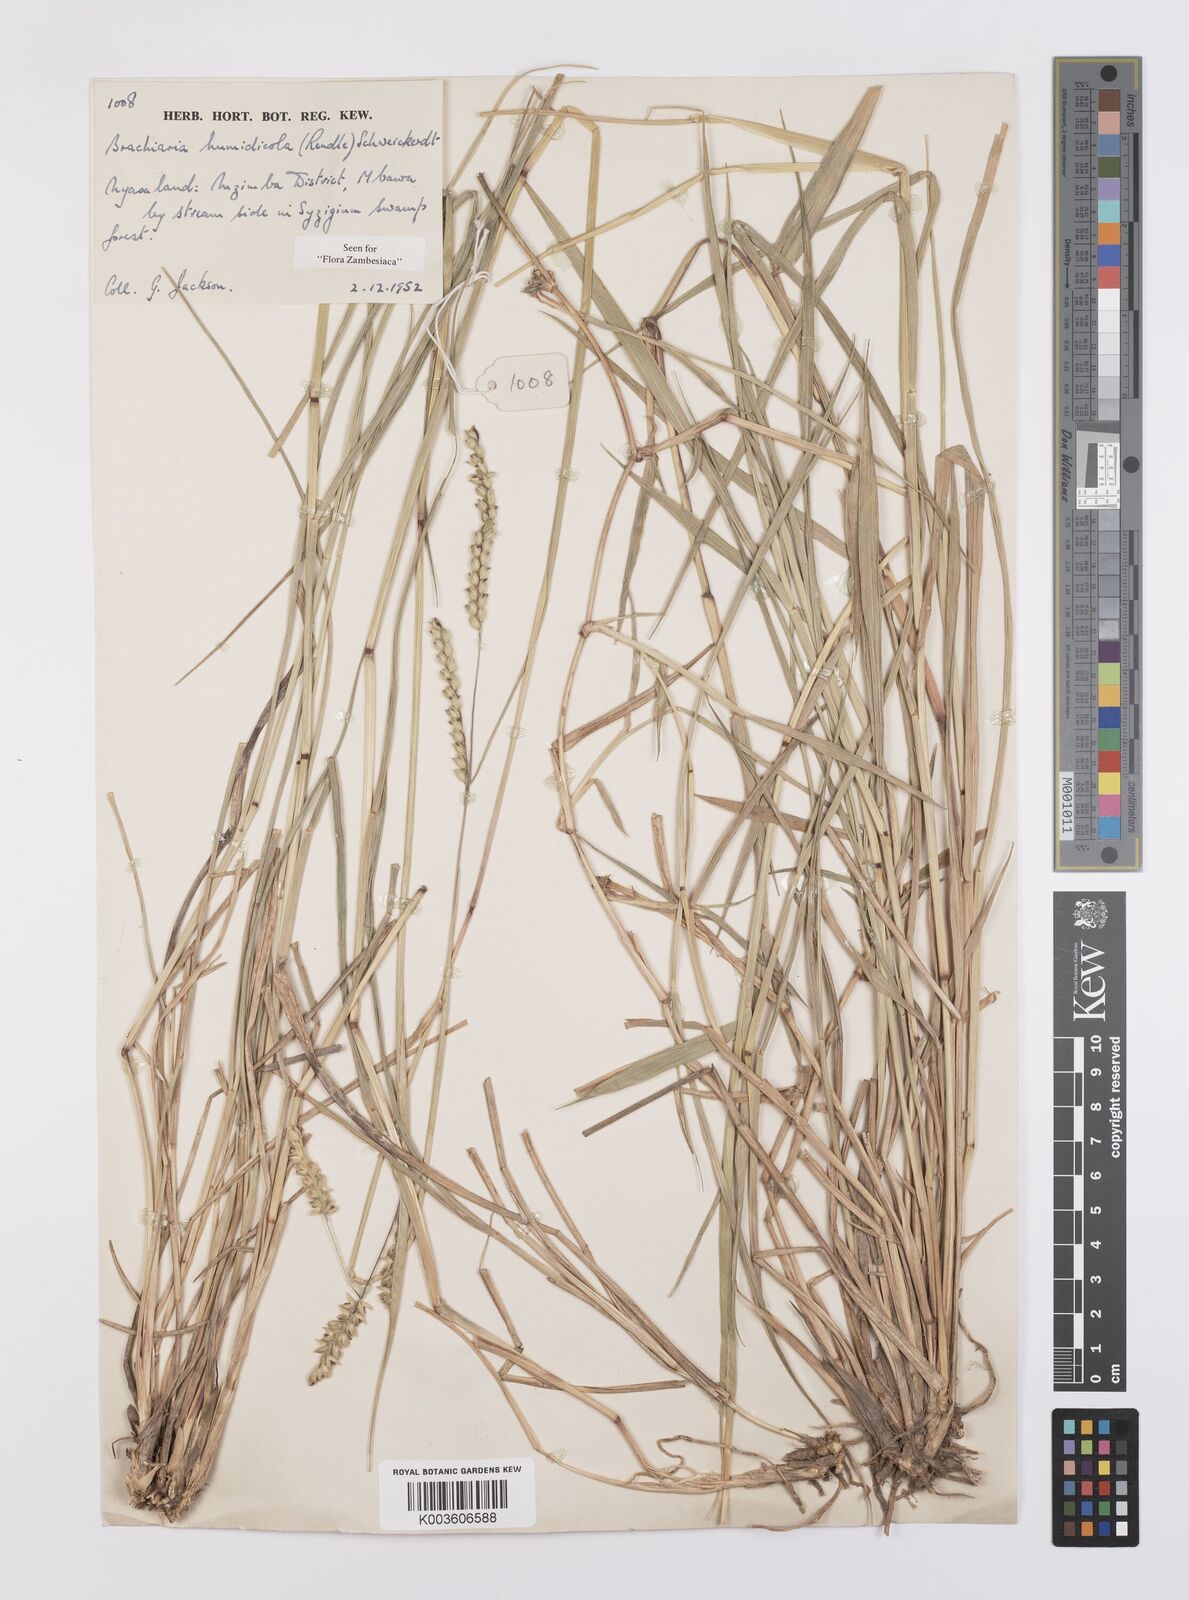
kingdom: Plantae
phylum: Tracheophyta
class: Liliopsida
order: Poales
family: Poaceae
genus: Urochloa
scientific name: Urochloa dictyoneura
